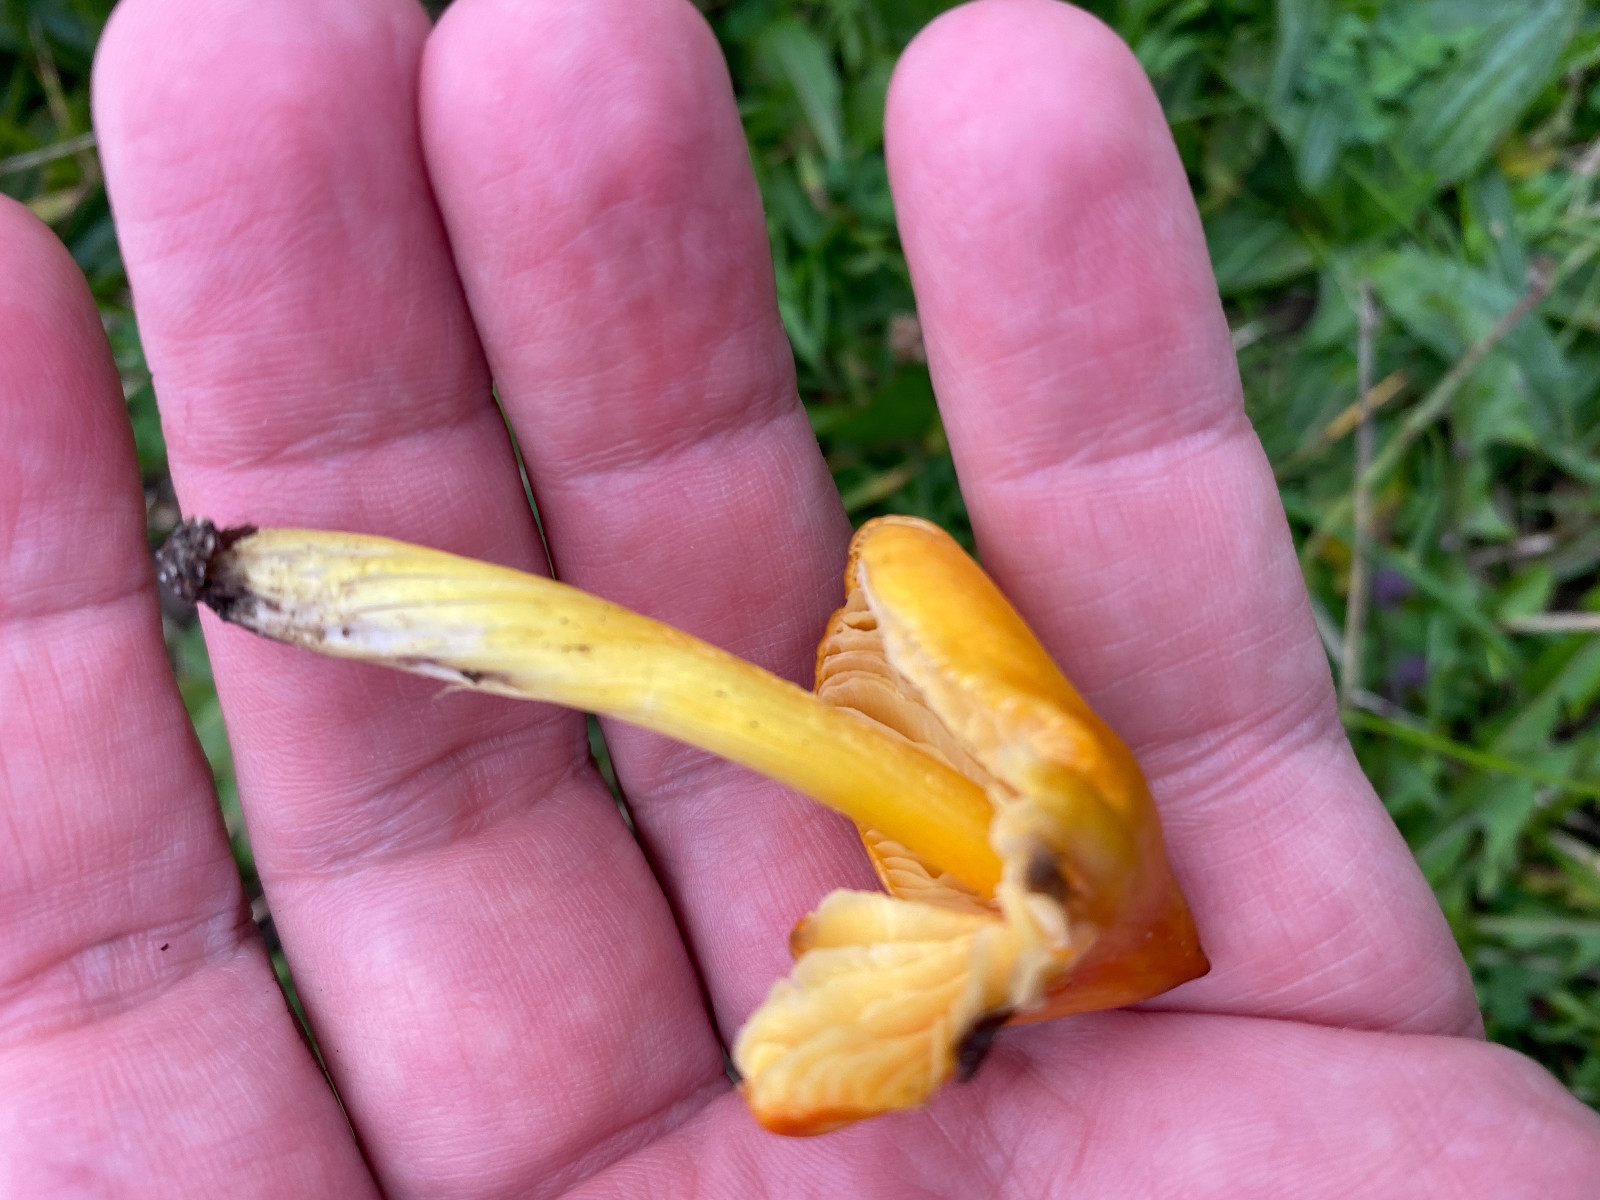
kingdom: Fungi
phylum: Basidiomycota
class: Agaricomycetes
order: Agaricales
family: Hygrophoraceae
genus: Hygrocybe
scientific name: Hygrocybe conica
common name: kegle-vokshat
